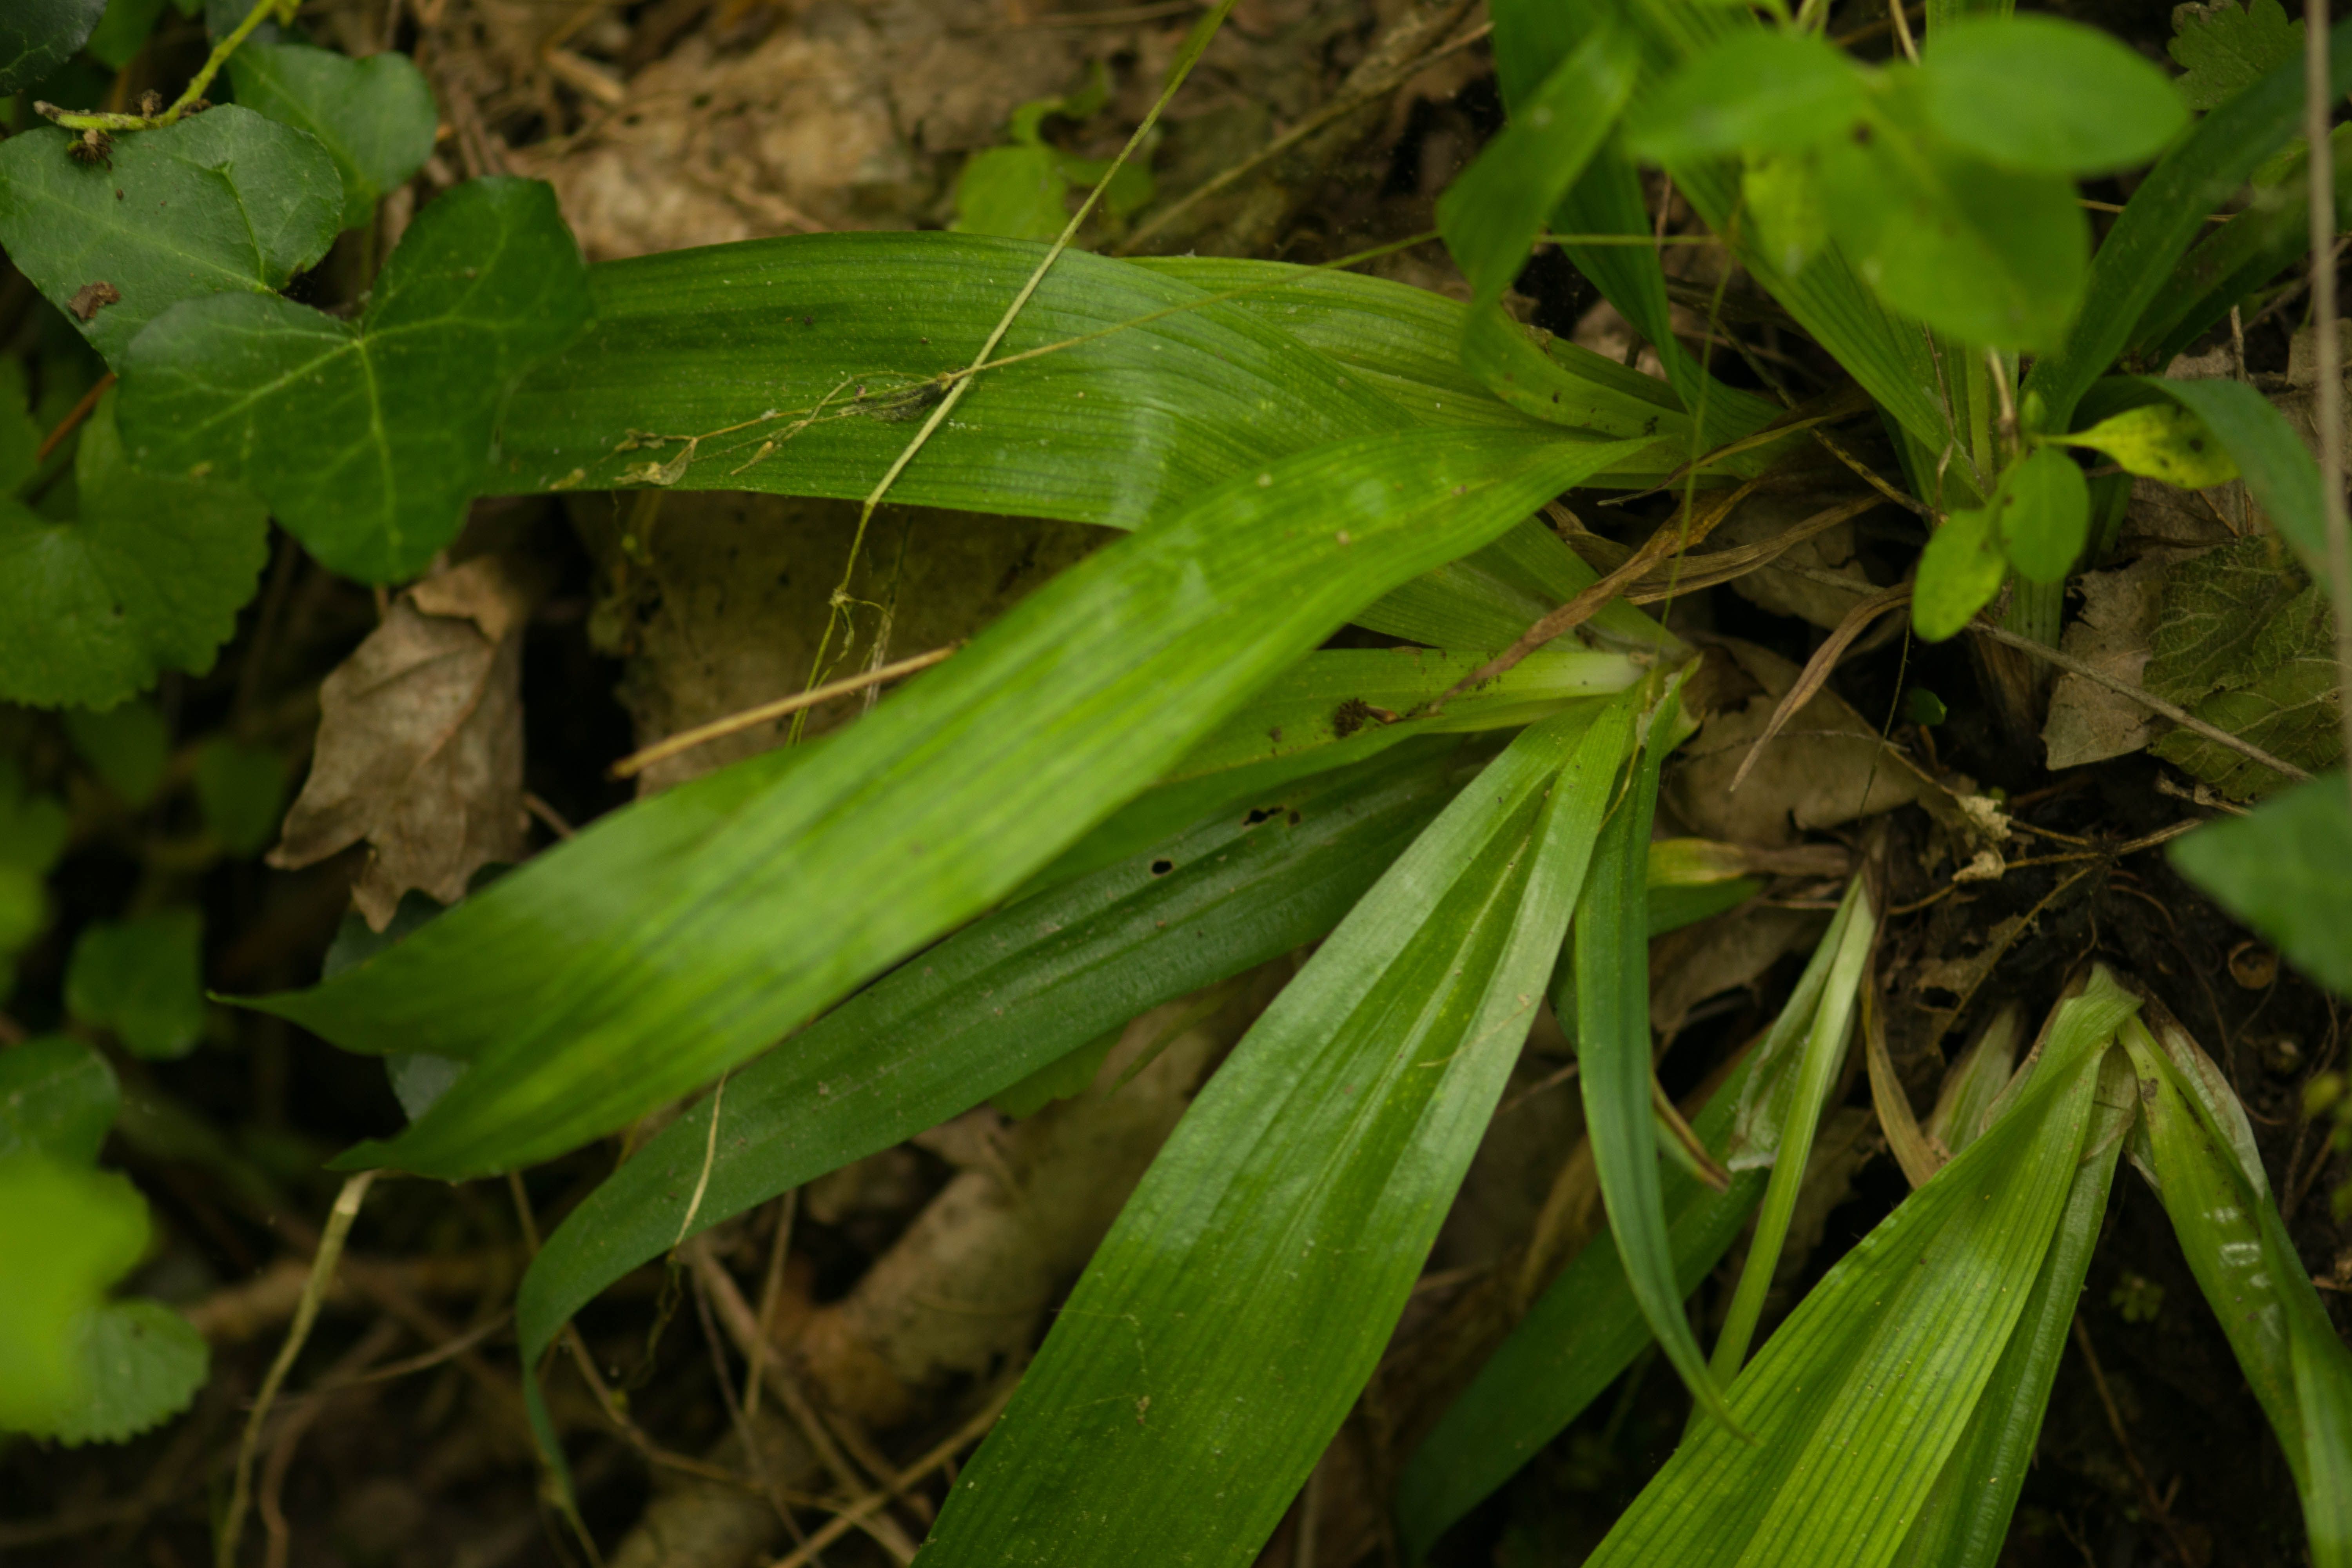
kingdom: Plantae
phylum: Tracheophyta
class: Liliopsida
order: Poales
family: Cyperaceae
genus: Carex
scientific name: Carex albursina
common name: Blunt-scale wood sedge
